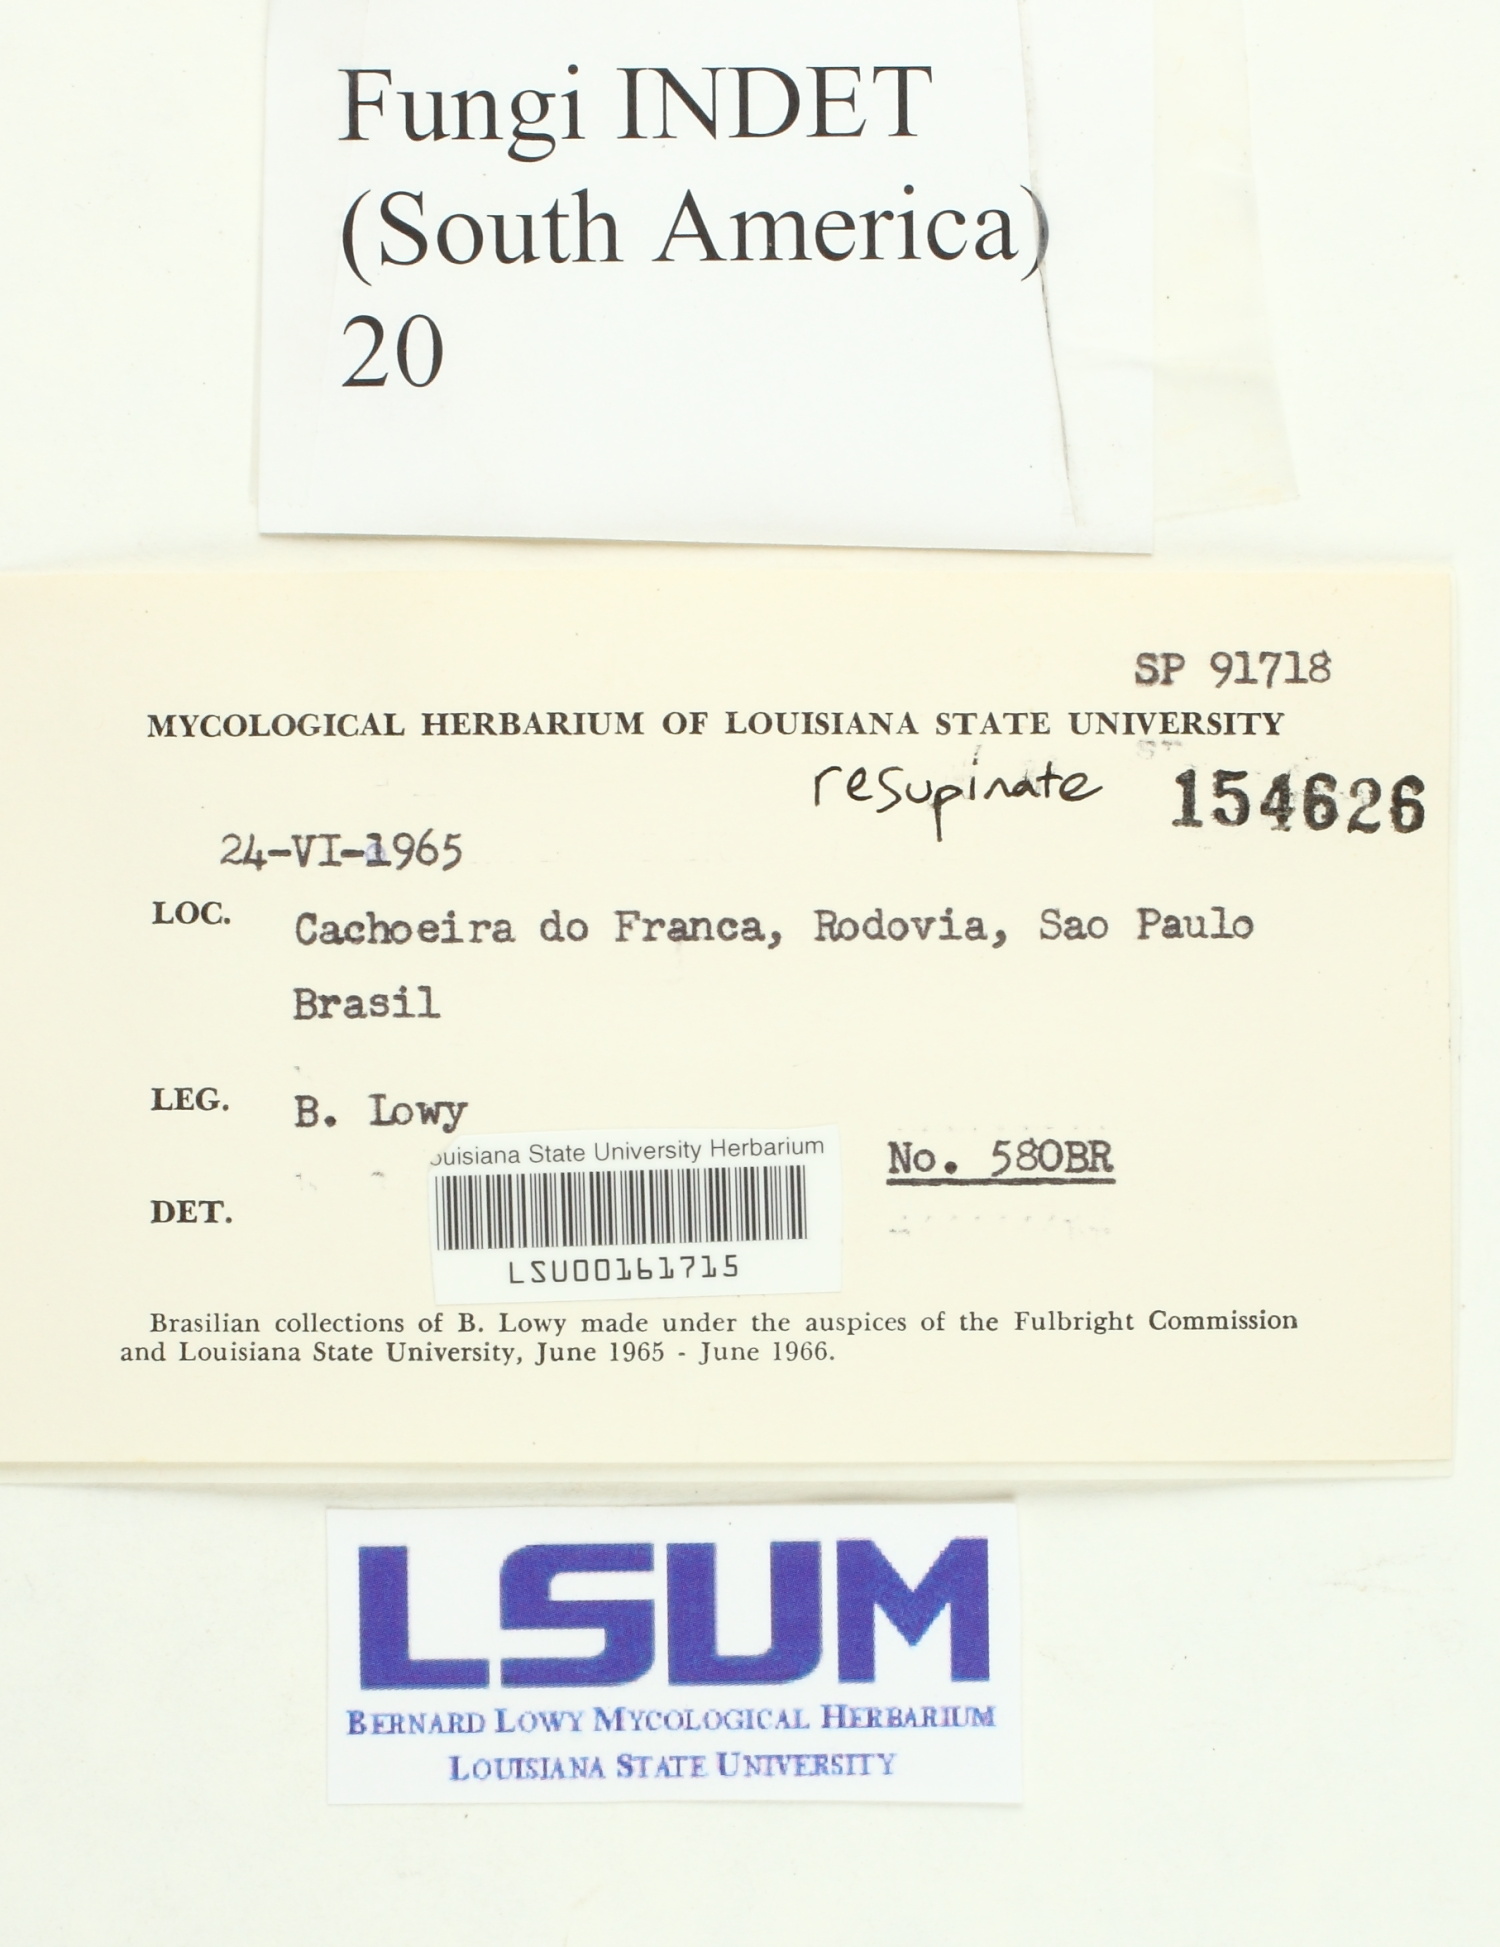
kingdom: Fungi
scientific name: Fungi
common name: Fungi
